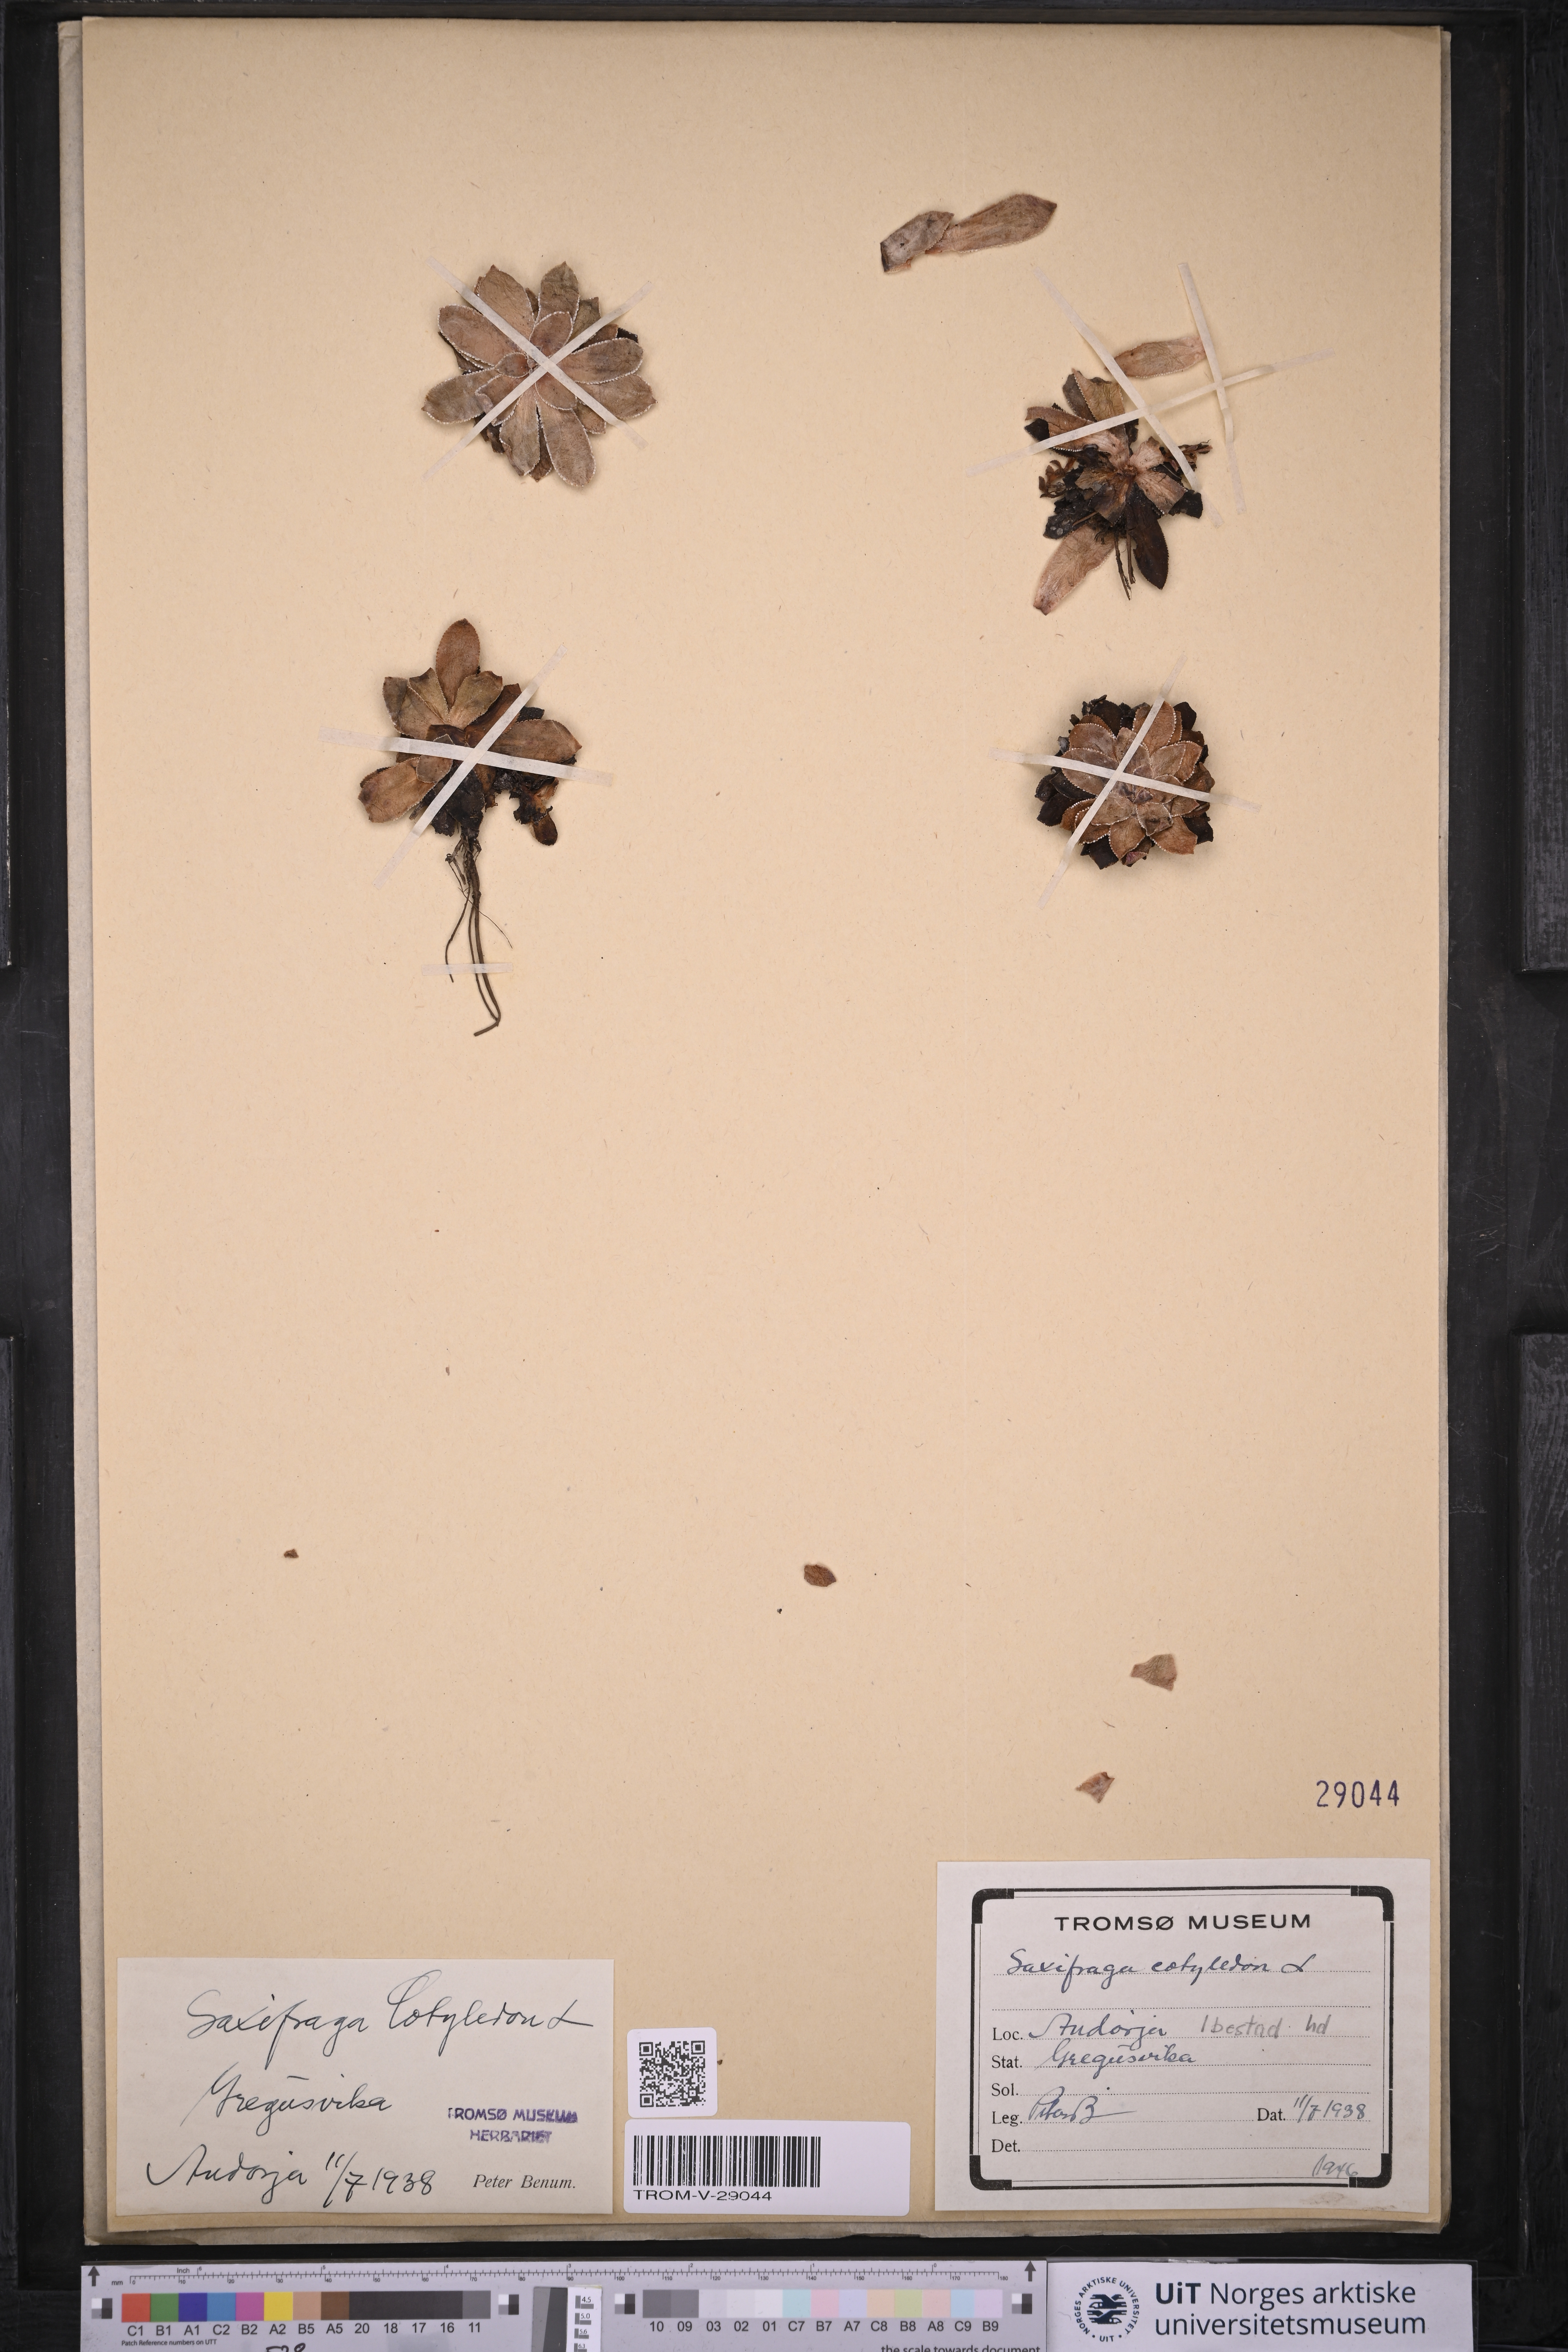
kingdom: Plantae
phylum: Tracheophyta
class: Magnoliopsida
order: Saxifragales
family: Saxifragaceae
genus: Saxifraga
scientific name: Saxifraga cotyledon
